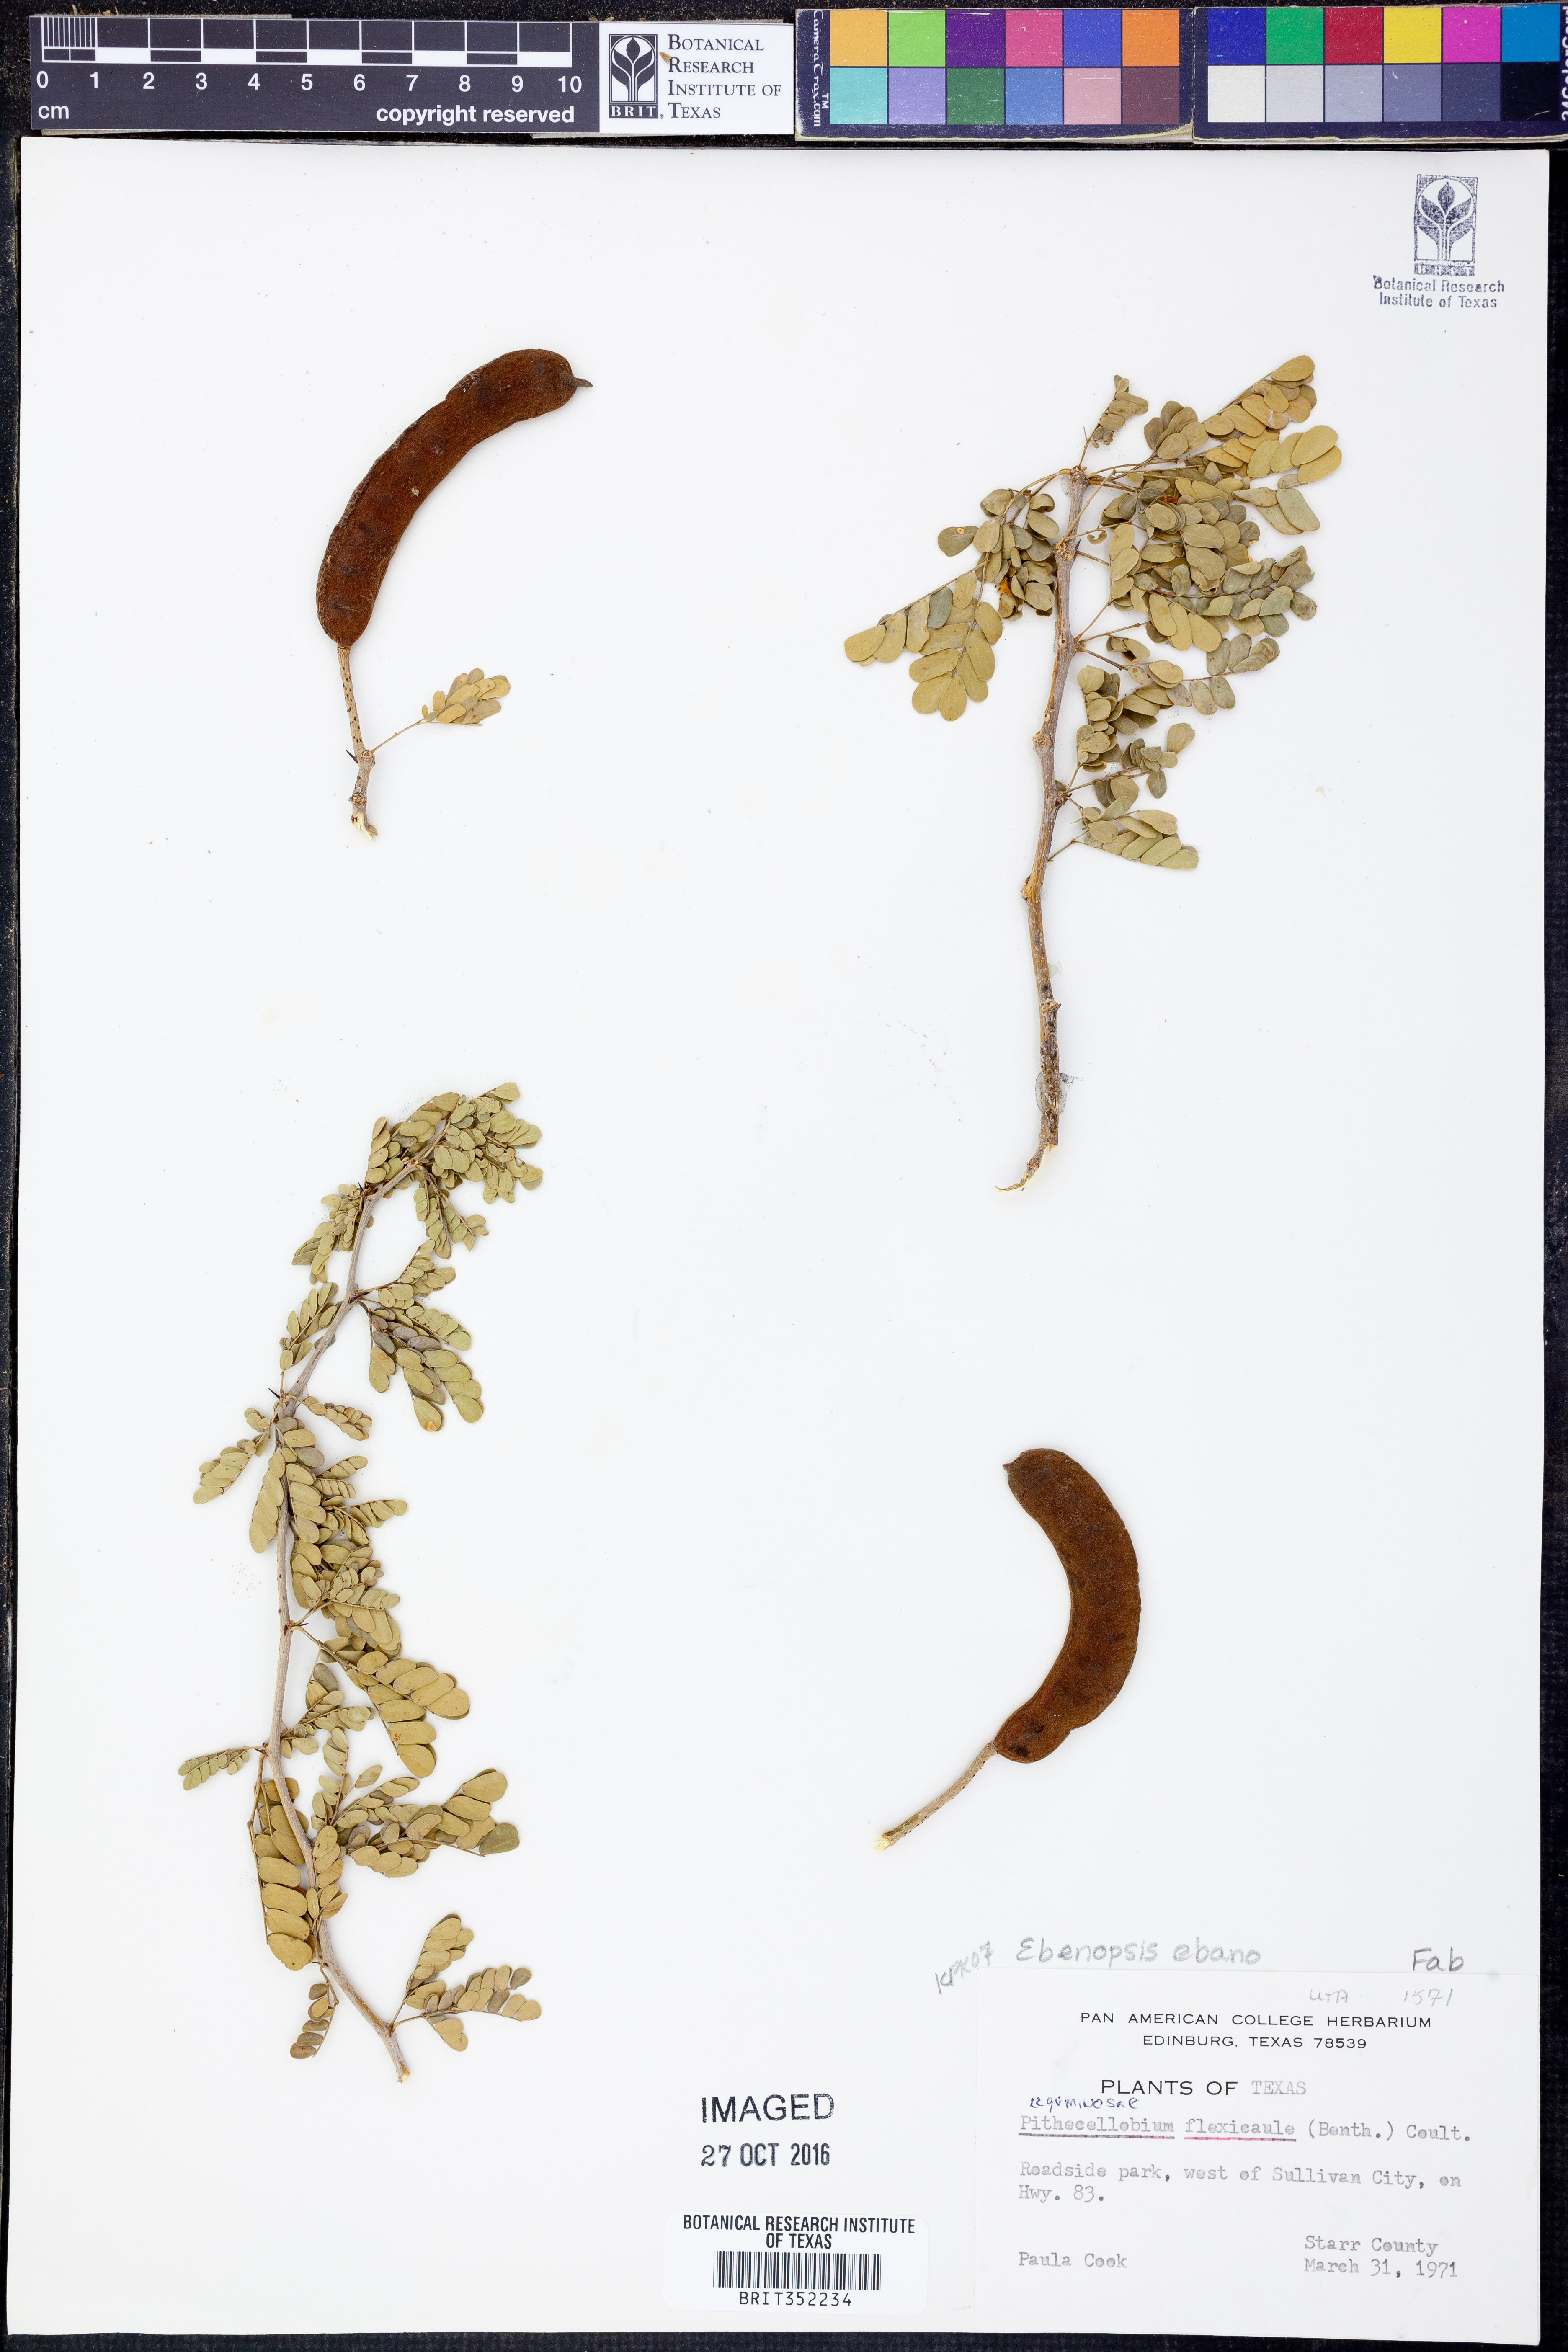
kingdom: Plantae
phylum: Tracheophyta
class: Magnoliopsida
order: Fabales
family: Fabaceae
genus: Ebenopsis
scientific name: Ebenopsis ebano
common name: Ebony blackbead
